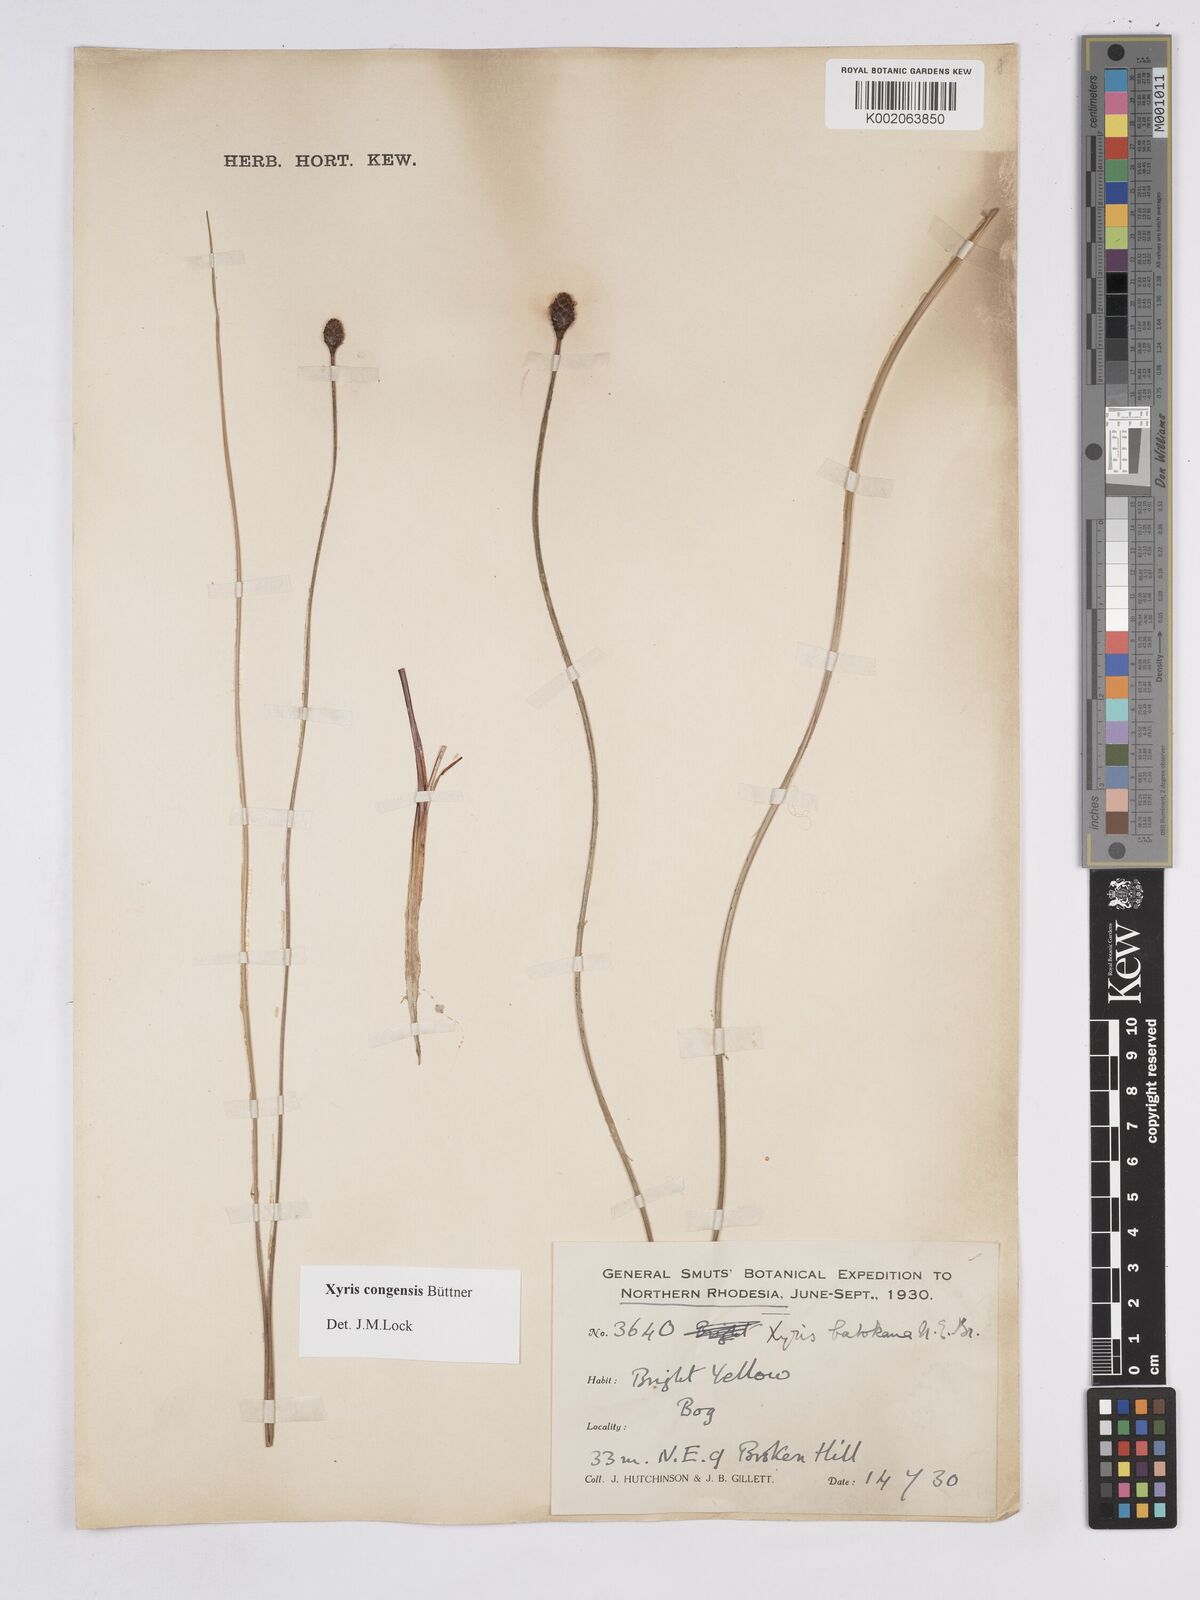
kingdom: Plantae
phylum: Tracheophyta
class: Liliopsida
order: Poales
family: Xyridaceae
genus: Xyris
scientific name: Xyris congensis
